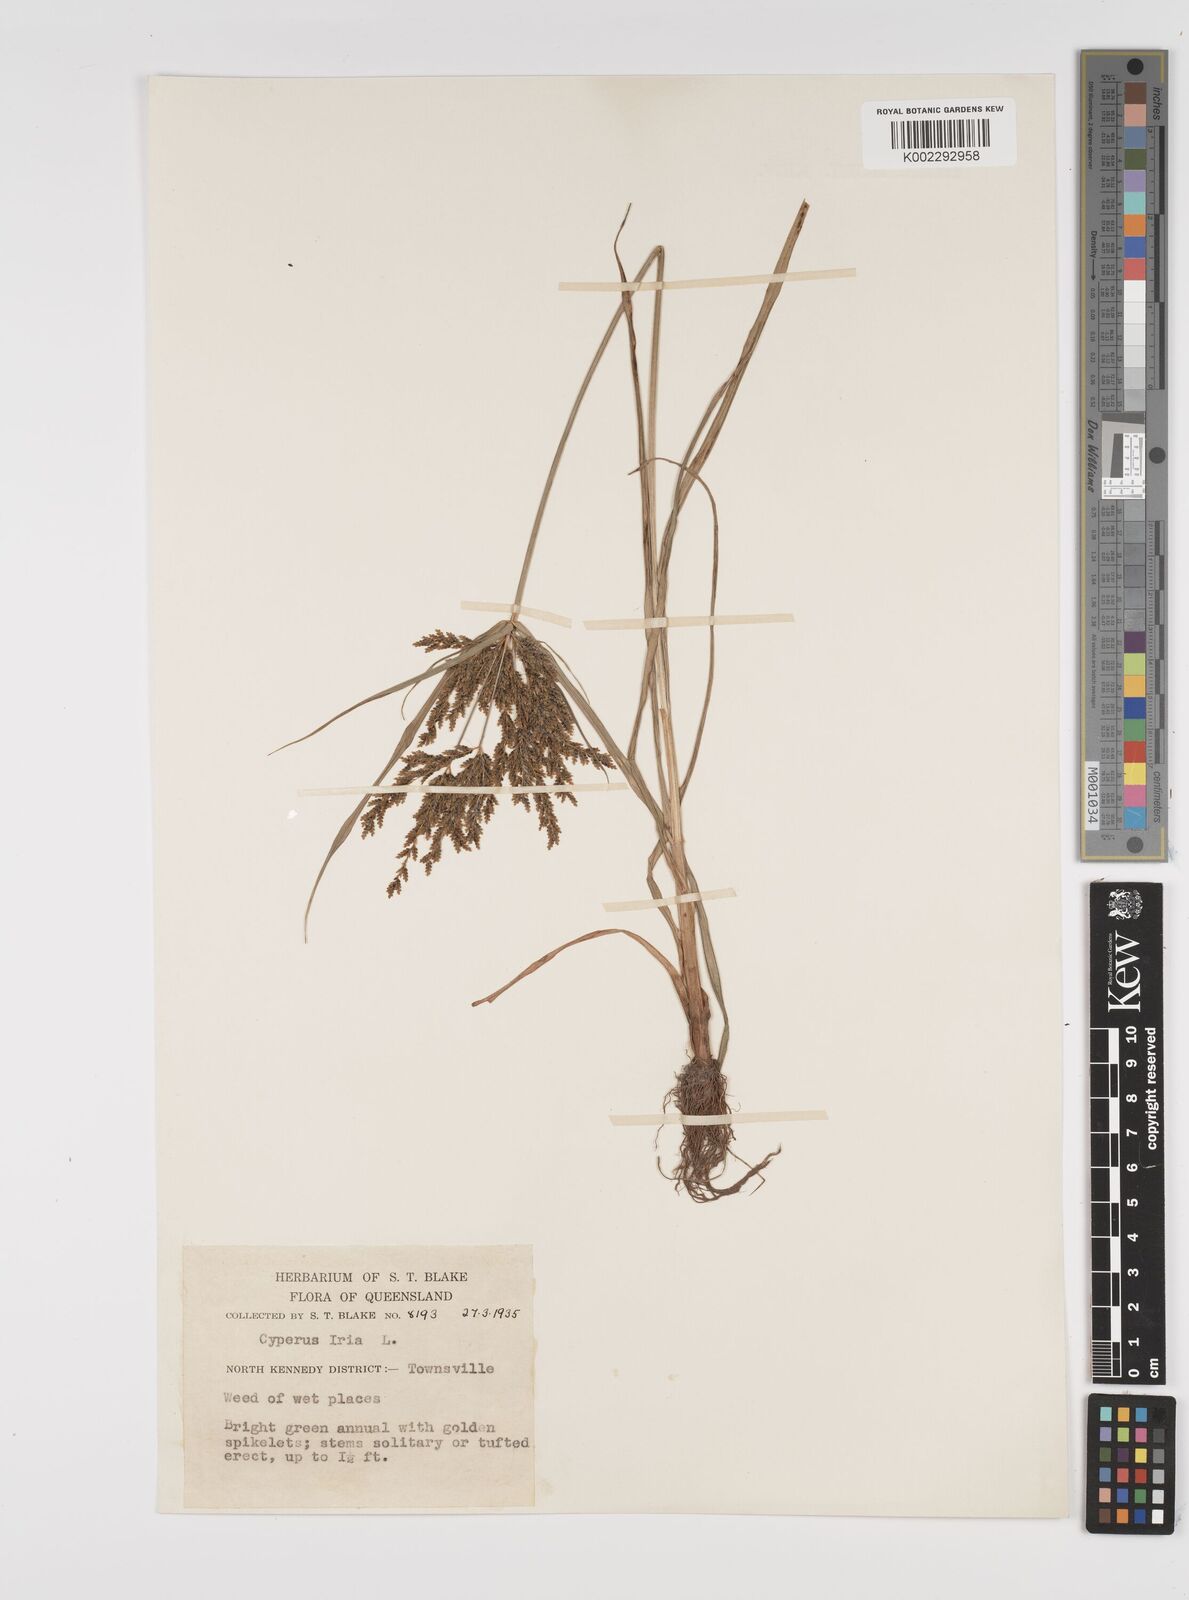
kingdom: Plantae
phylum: Tracheophyta
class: Liliopsida
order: Poales
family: Cyperaceae
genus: Cyperus
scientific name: Cyperus iria
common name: Ricefield flatsedge
